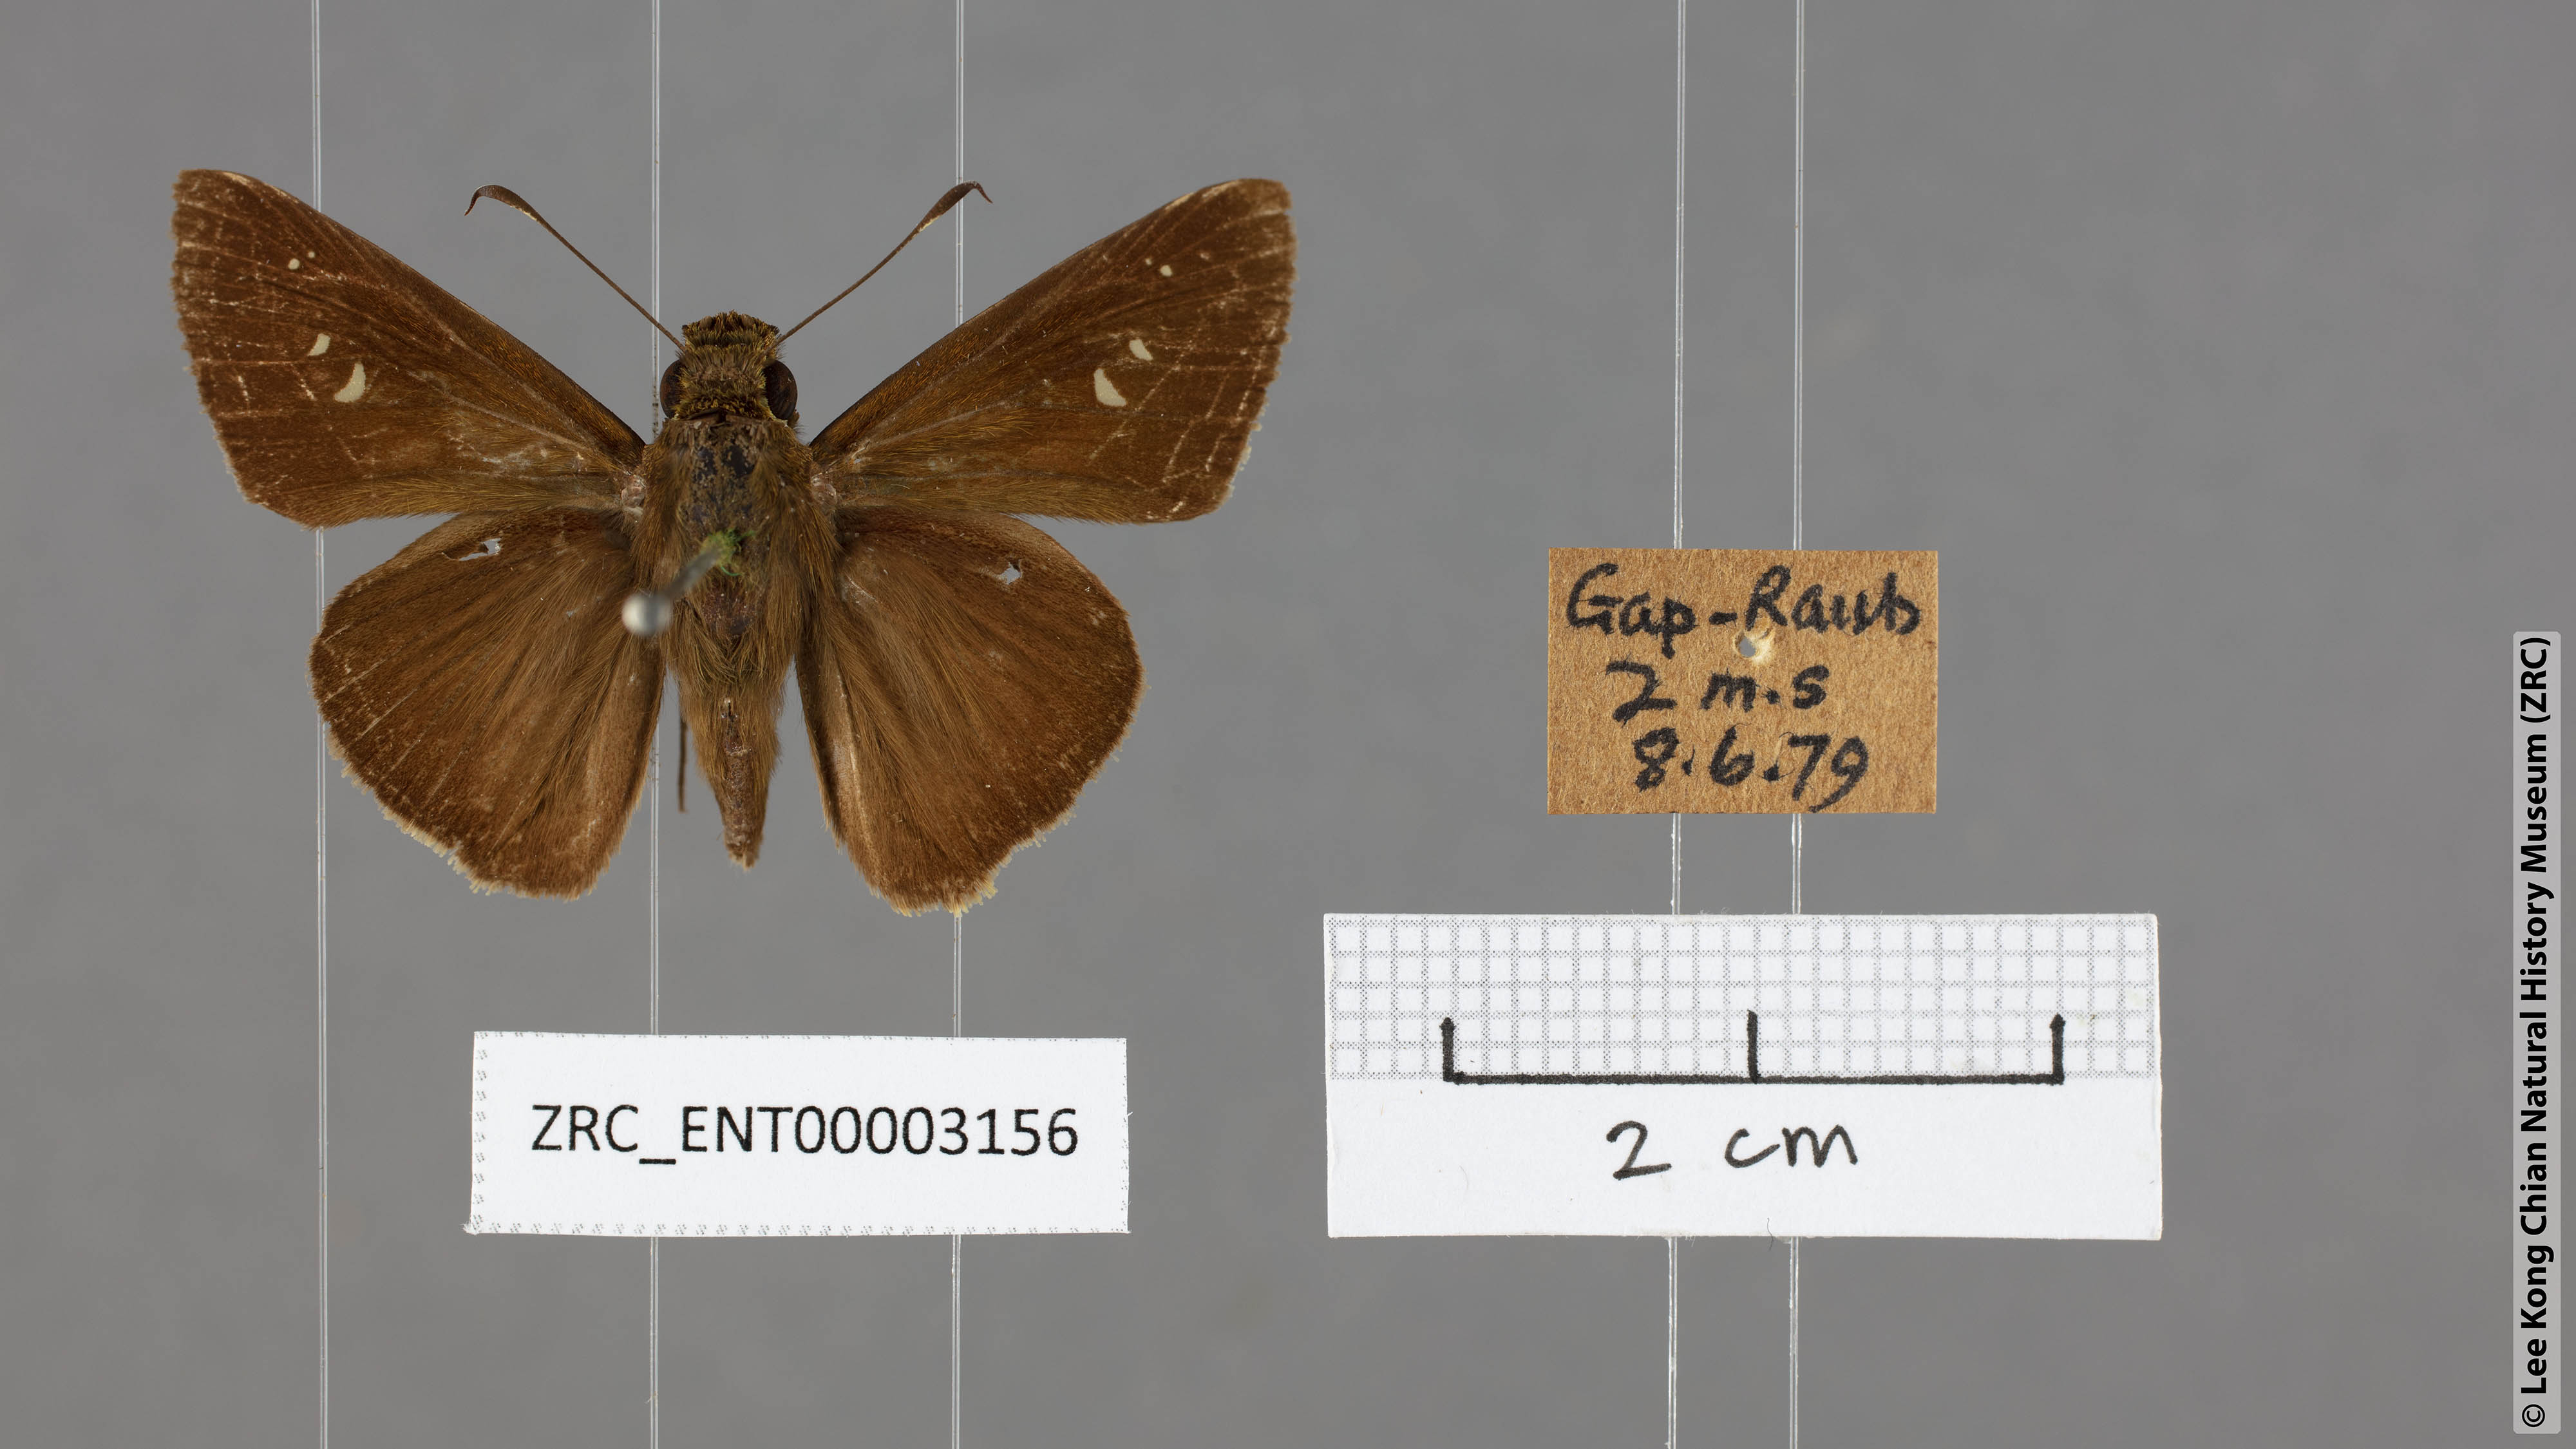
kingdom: Animalia
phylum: Arthropoda
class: Insecta
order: Lepidoptera
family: Hesperiidae
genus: Caltoris
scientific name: Caltoris malaya
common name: Malayan swift
